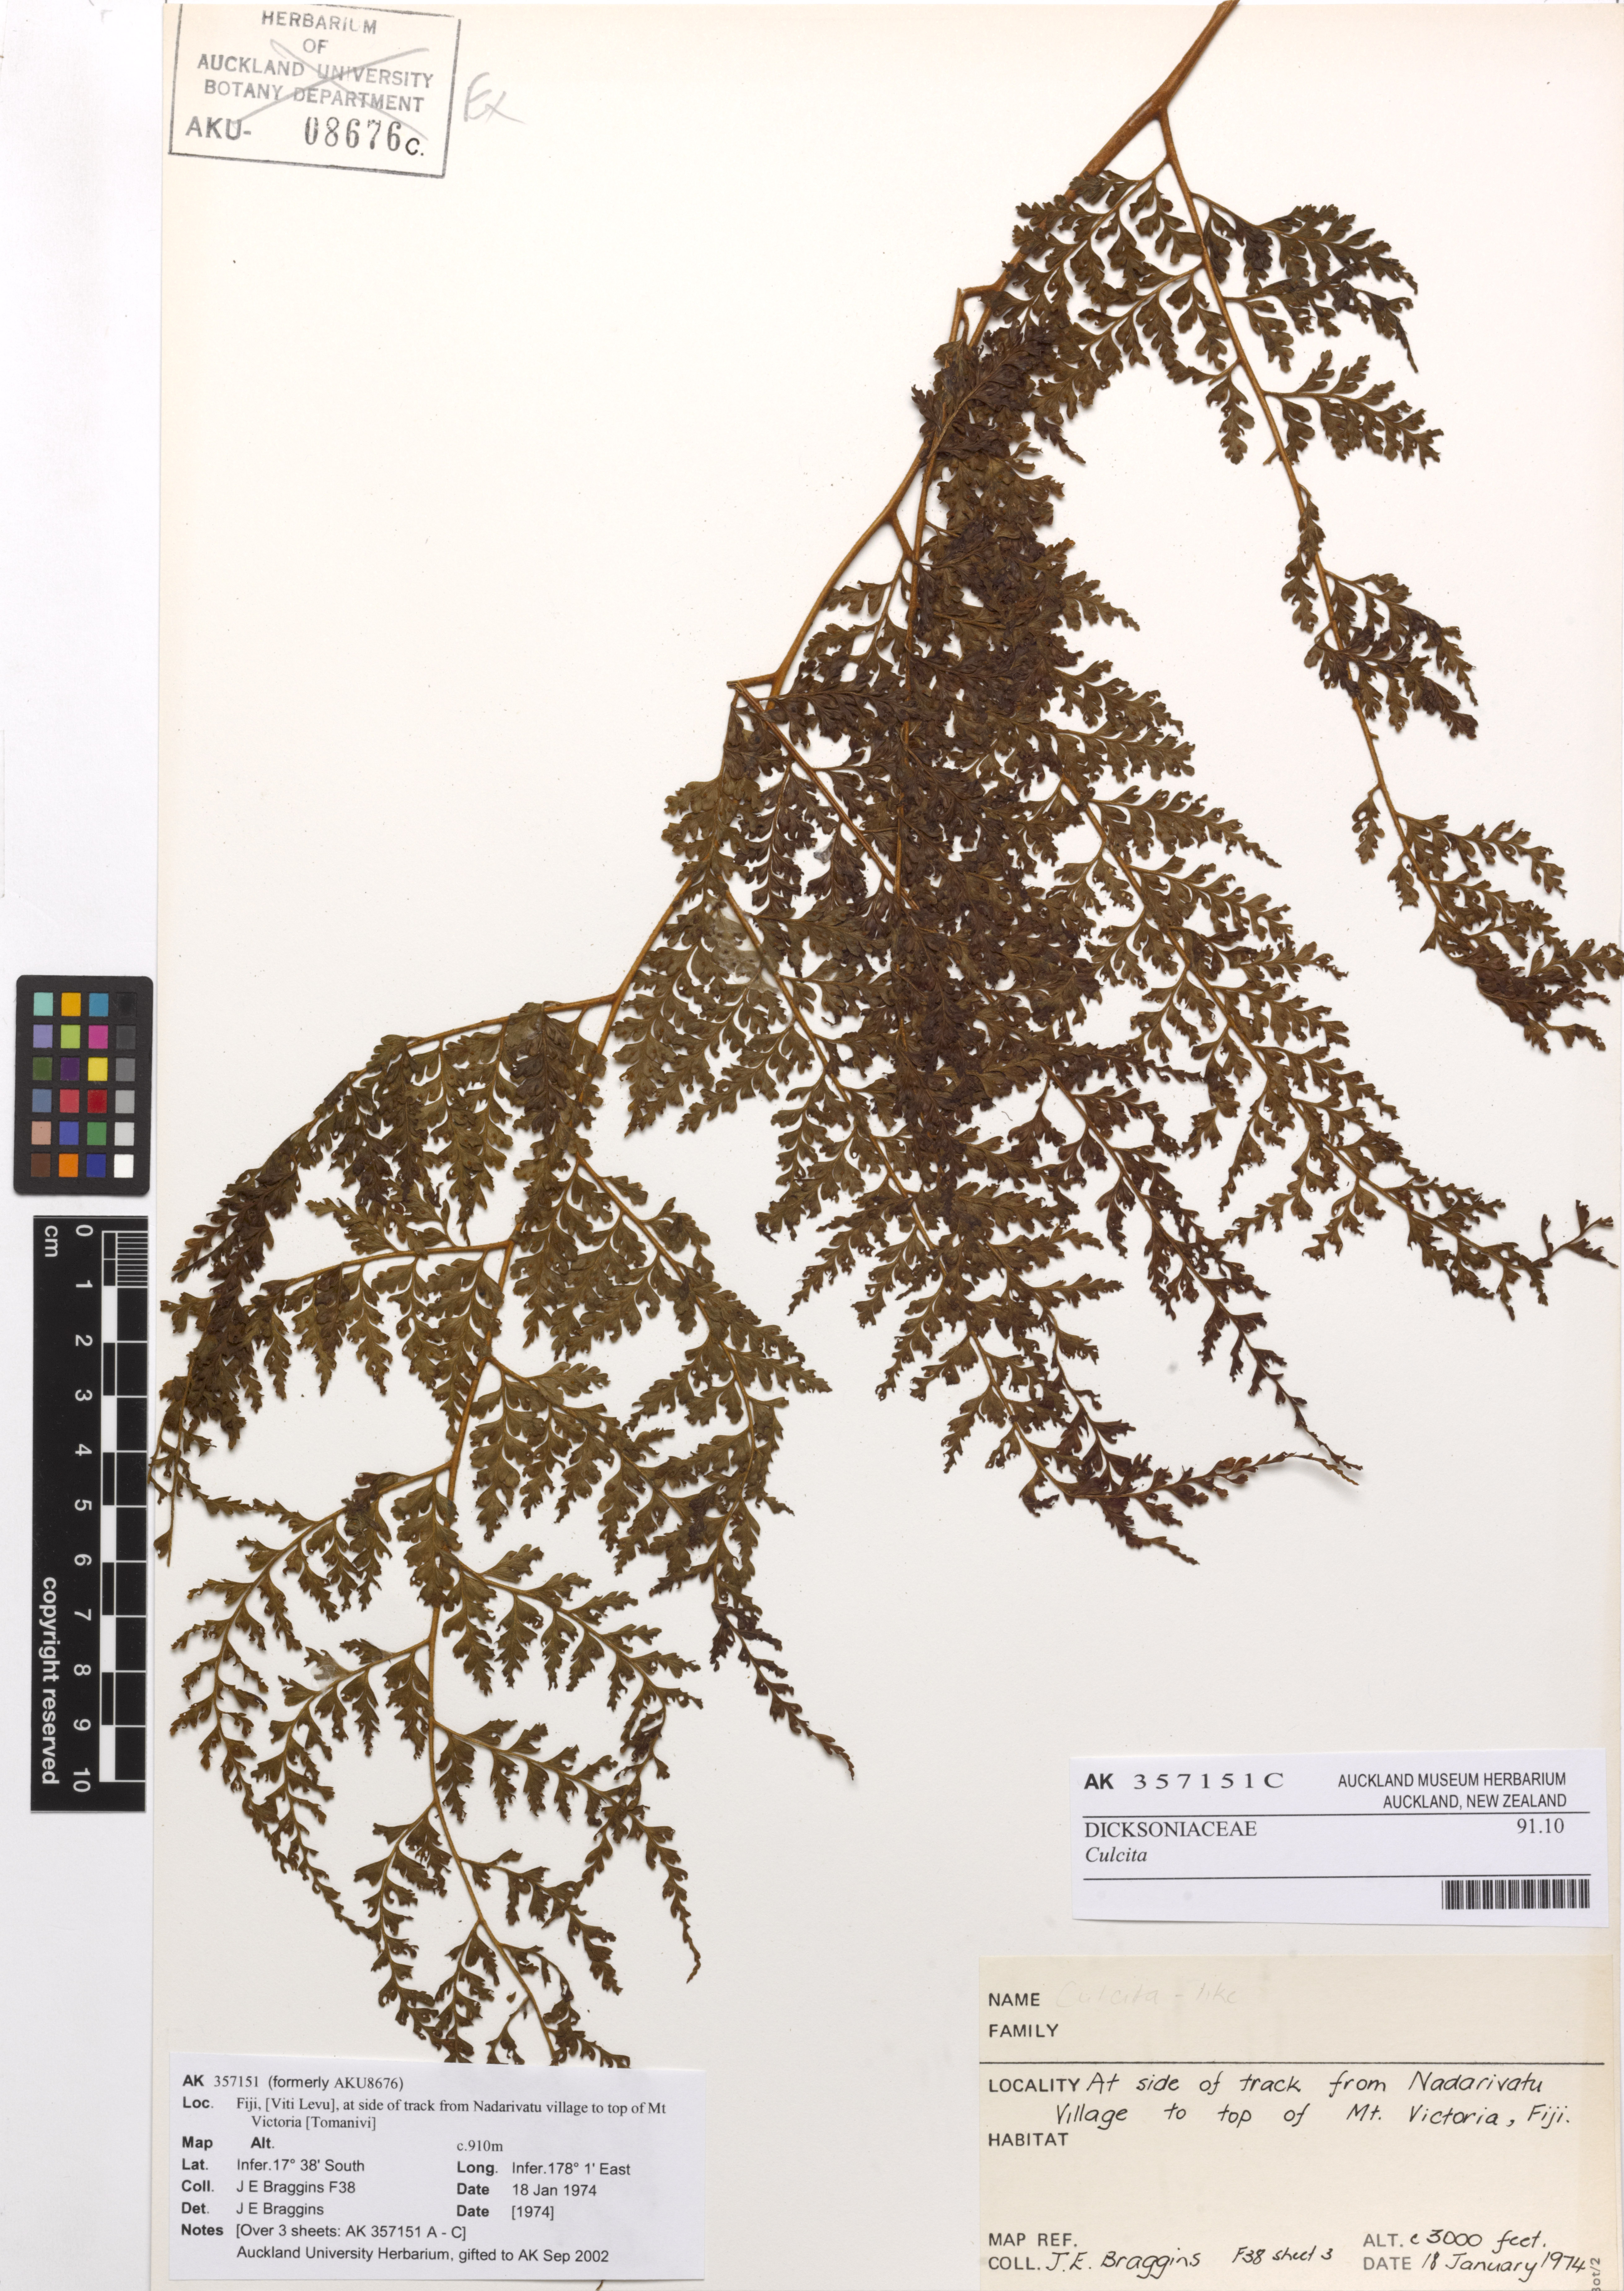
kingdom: Plantae
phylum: Tracheophyta
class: Polypodiopsida
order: Cyatheales
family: Culcitaceae
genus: Culcita
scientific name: Culcita
